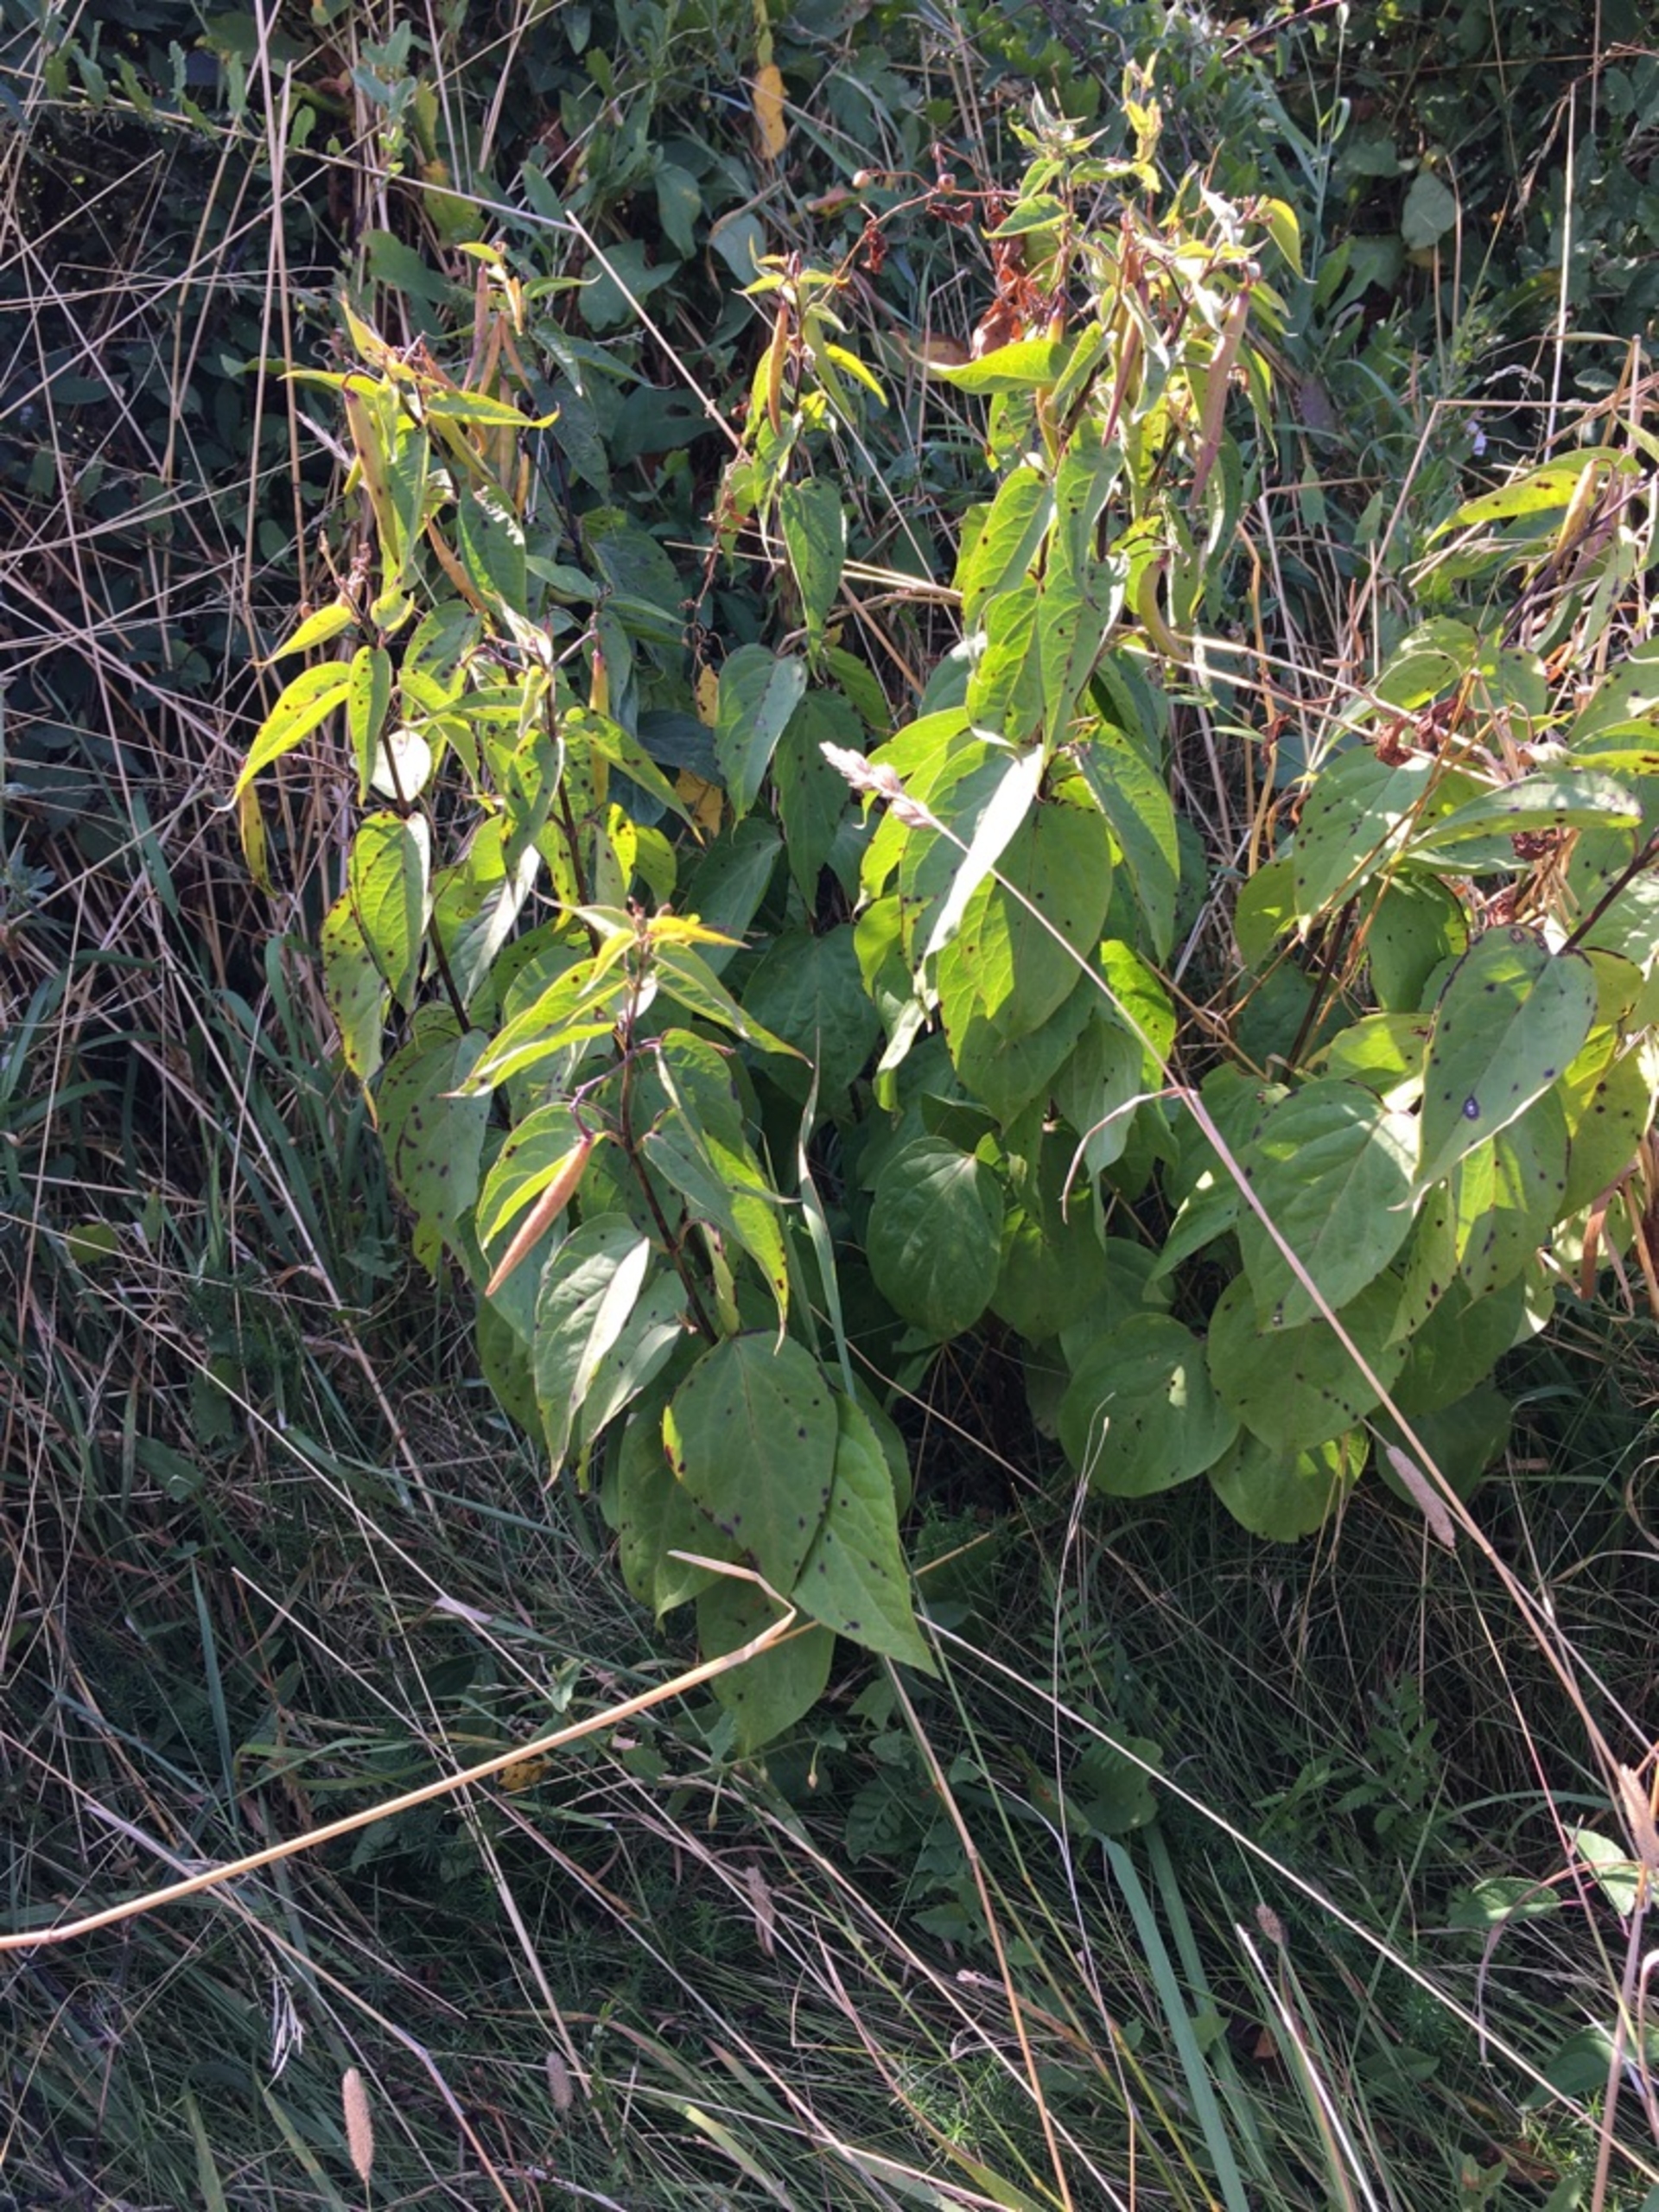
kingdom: Plantae
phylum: Tracheophyta
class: Magnoliopsida
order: Gentianales
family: Apocynaceae
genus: Vincetoxicum
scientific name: Vincetoxicum hirundinaria
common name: Svalerod
